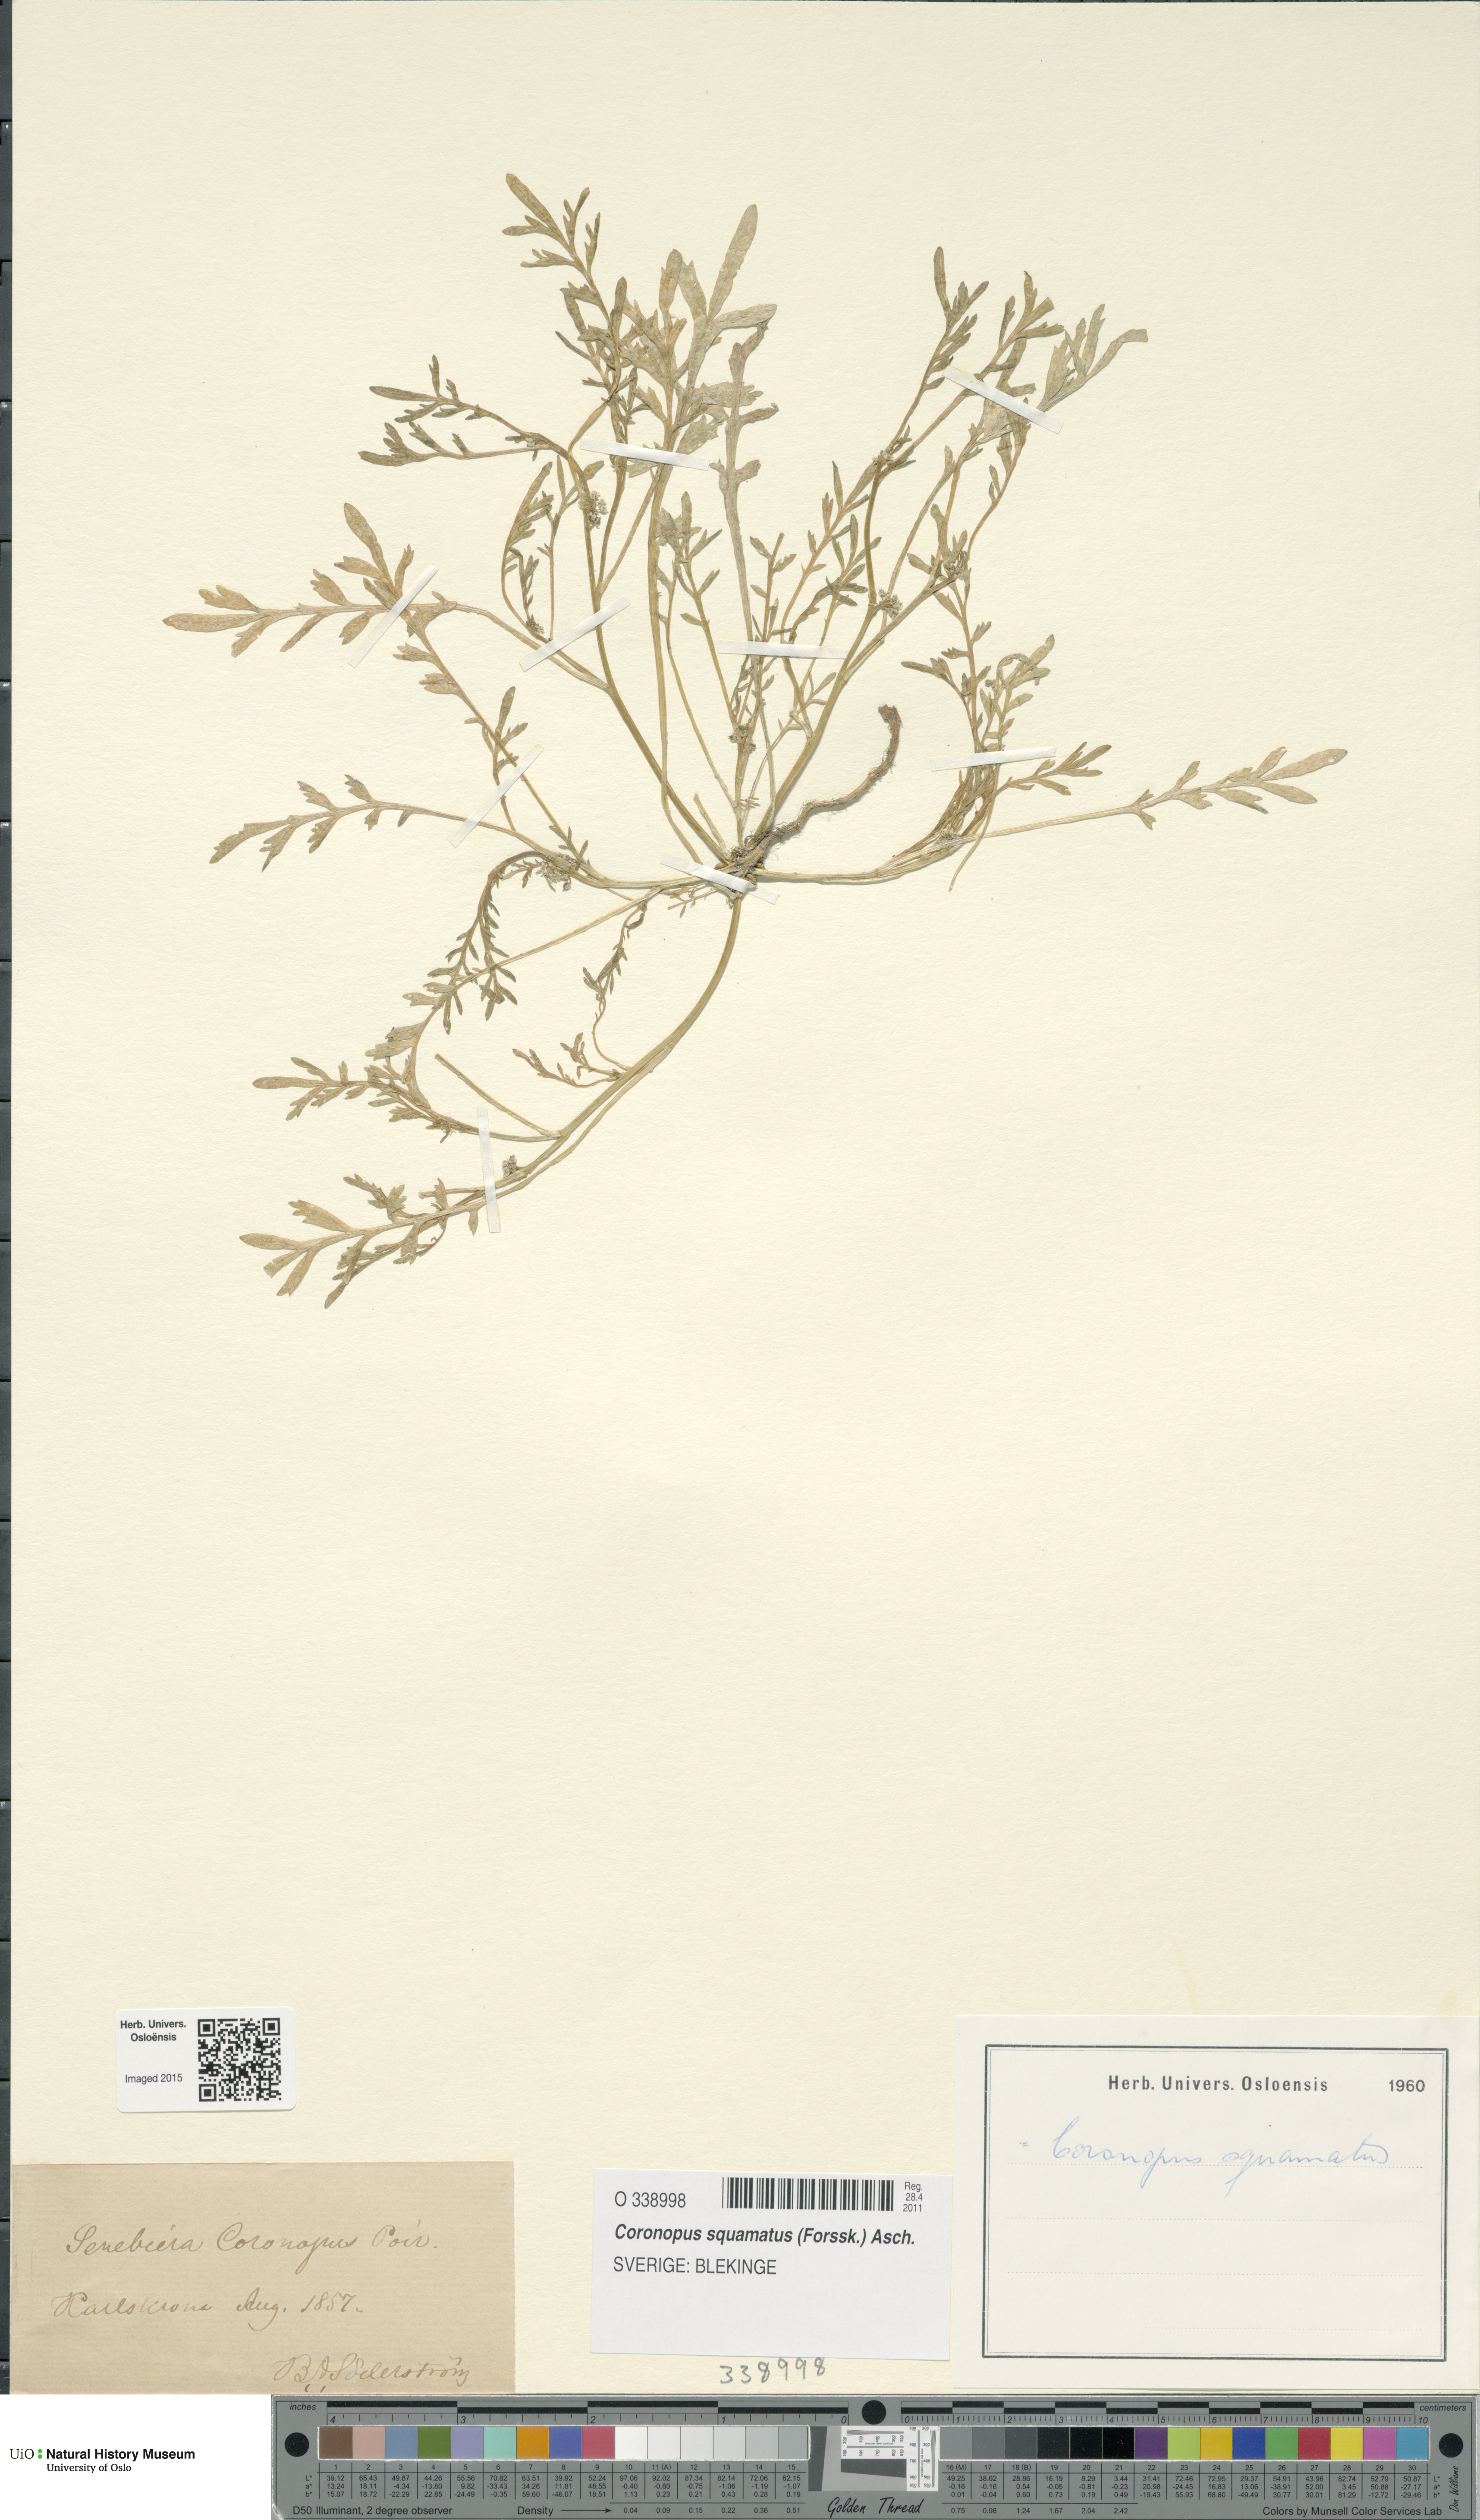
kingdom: Plantae
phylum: Tracheophyta
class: Magnoliopsida
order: Brassicales
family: Brassicaceae
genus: Lepidium
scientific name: Lepidium coronopus
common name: Greater swinecress
